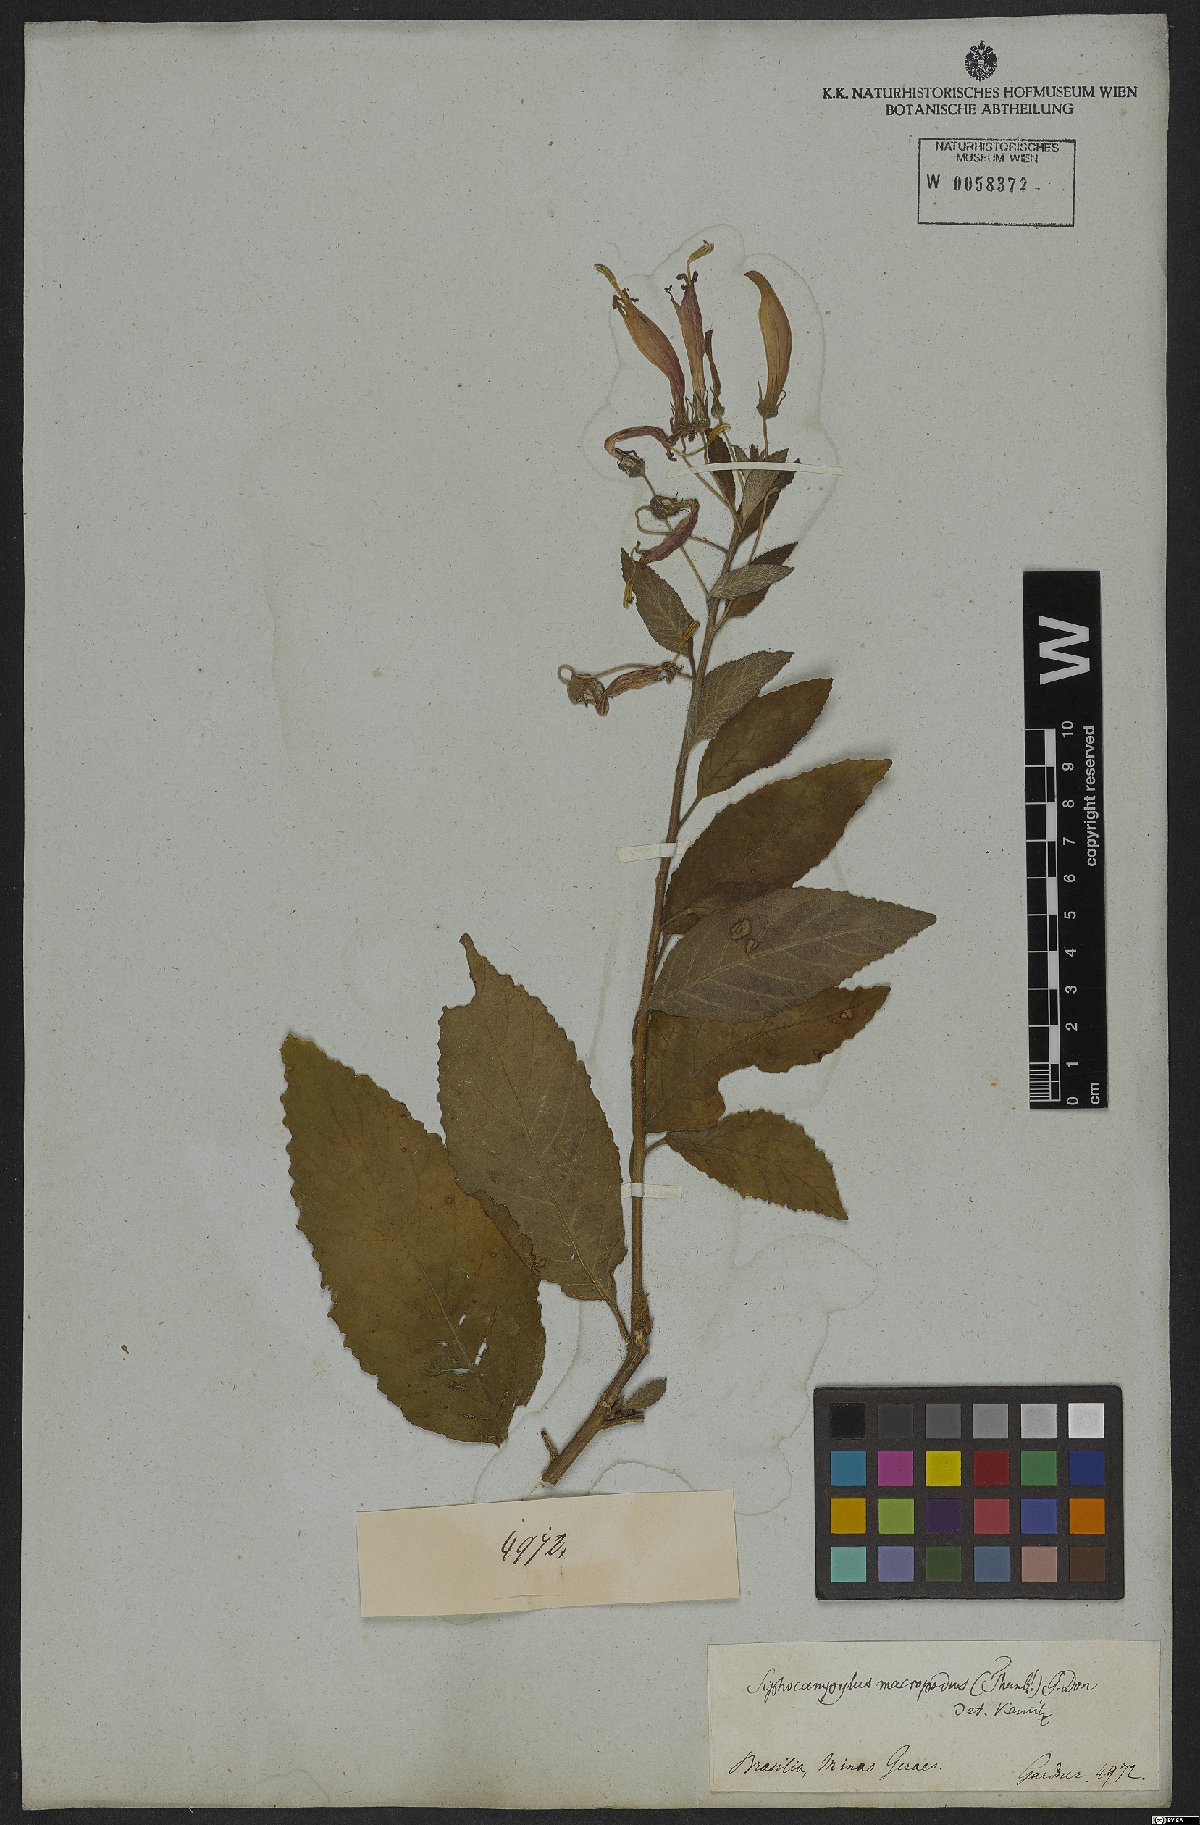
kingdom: Plantae
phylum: Tracheophyta
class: Magnoliopsida
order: Asterales
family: Campanulaceae
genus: Siphocampylus
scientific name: Siphocampylus macropodus
